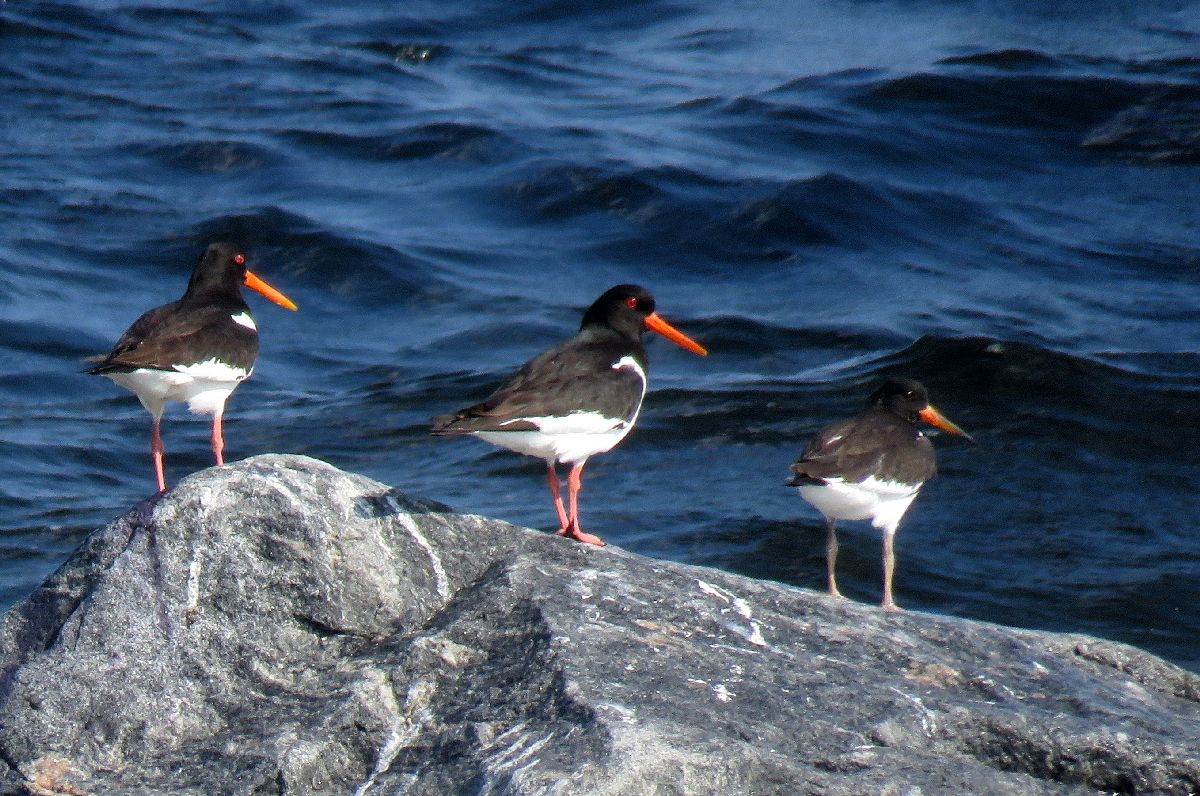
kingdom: Animalia
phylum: Chordata
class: Aves
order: Charadriiformes
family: Haematopodidae
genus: Haematopus
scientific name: Haematopus ostralegus
